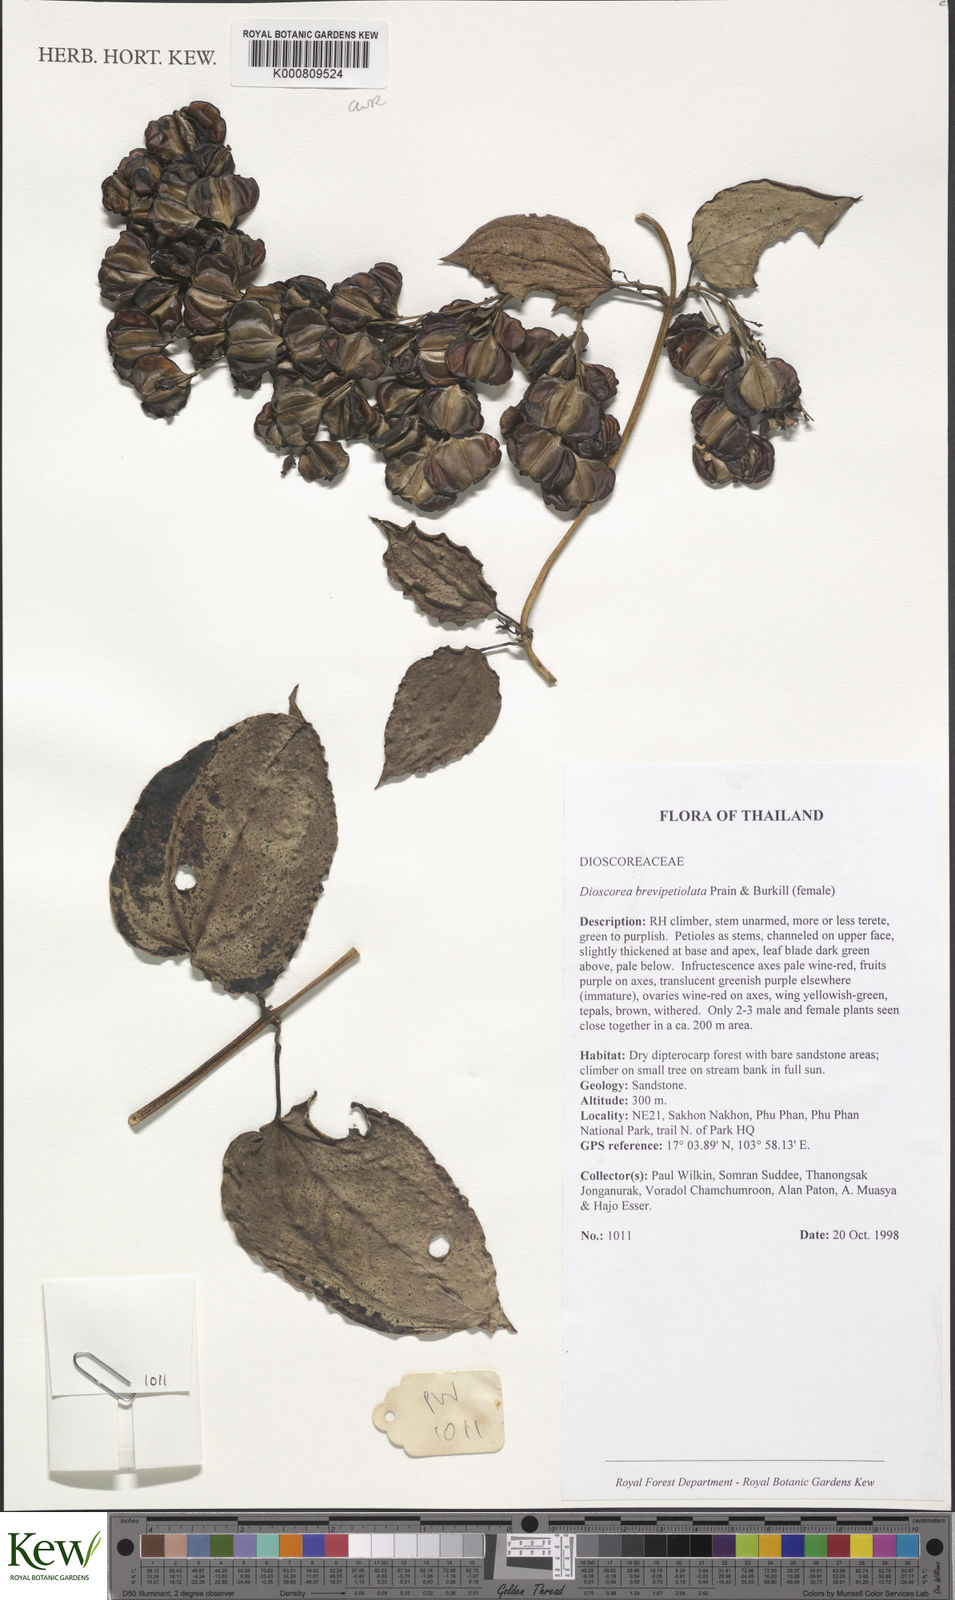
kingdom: Plantae
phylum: Tracheophyta
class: Liliopsida
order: Dioscoreales
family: Dioscoreaceae
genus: Dioscorea
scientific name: Dioscorea brevipetiolata
